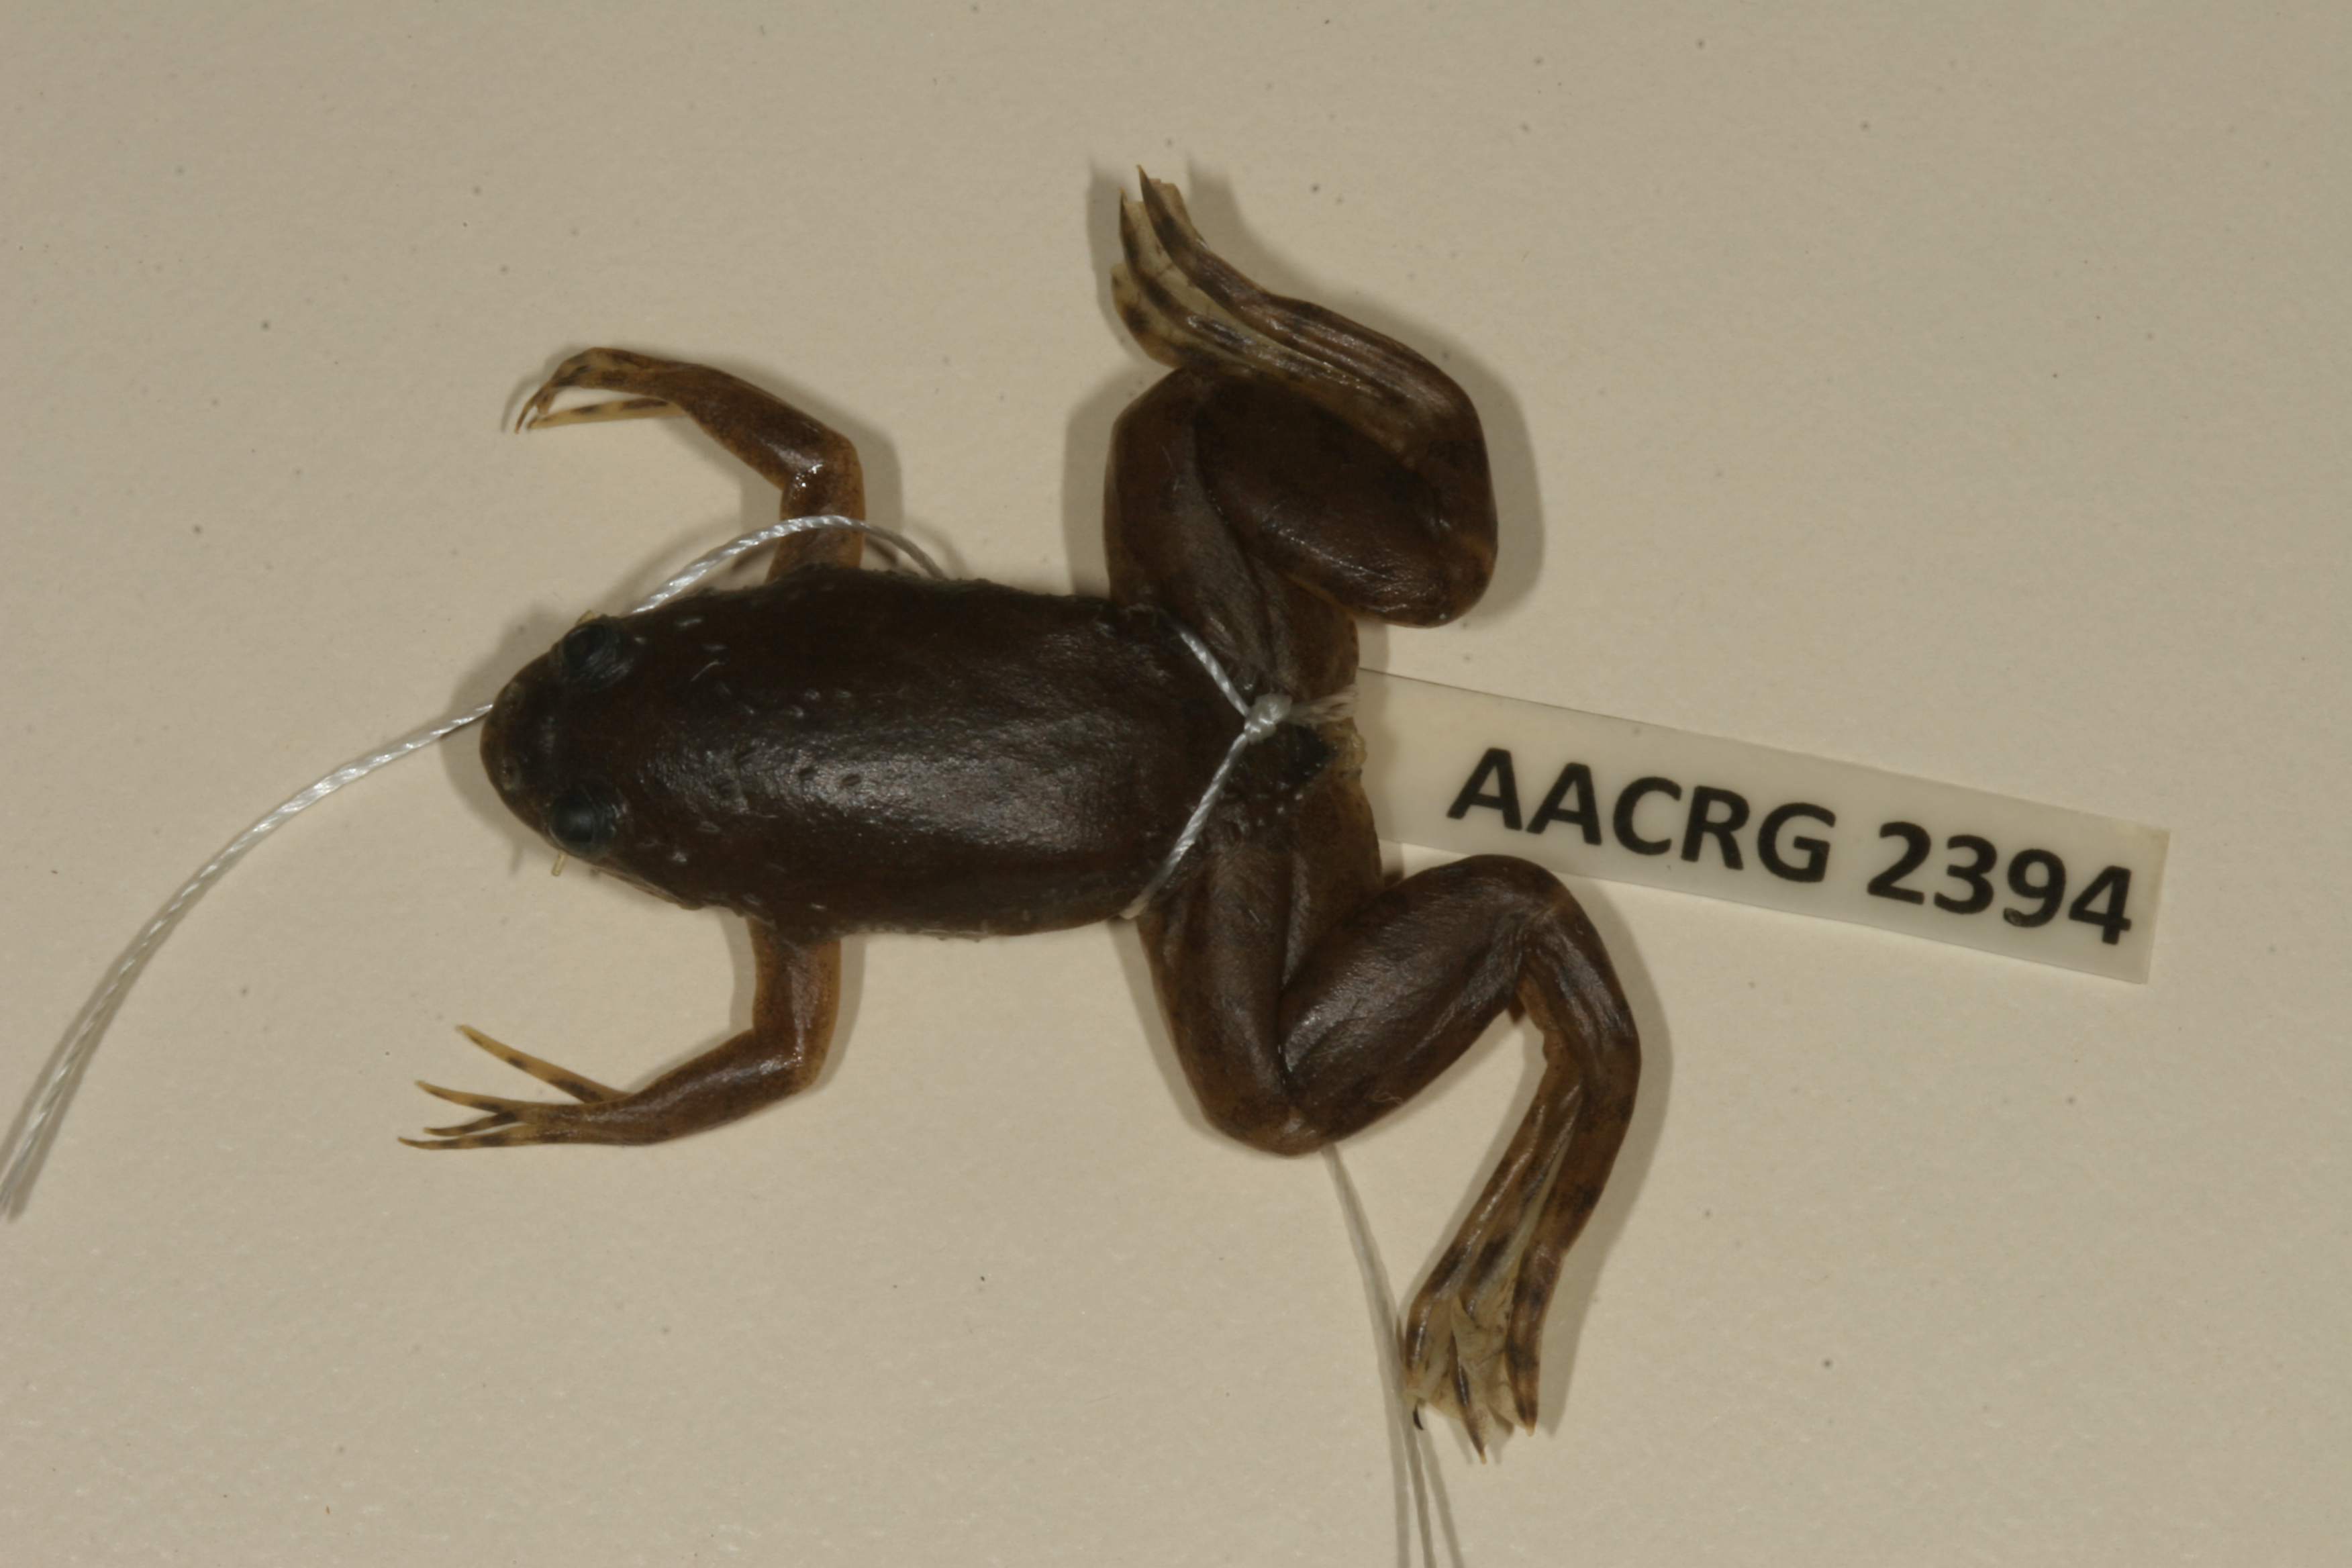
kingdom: Animalia
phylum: Chordata
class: Amphibia
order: Anura
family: Pipidae
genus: Xenopus
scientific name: Xenopus muelleri
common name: Muller's clawed frog
